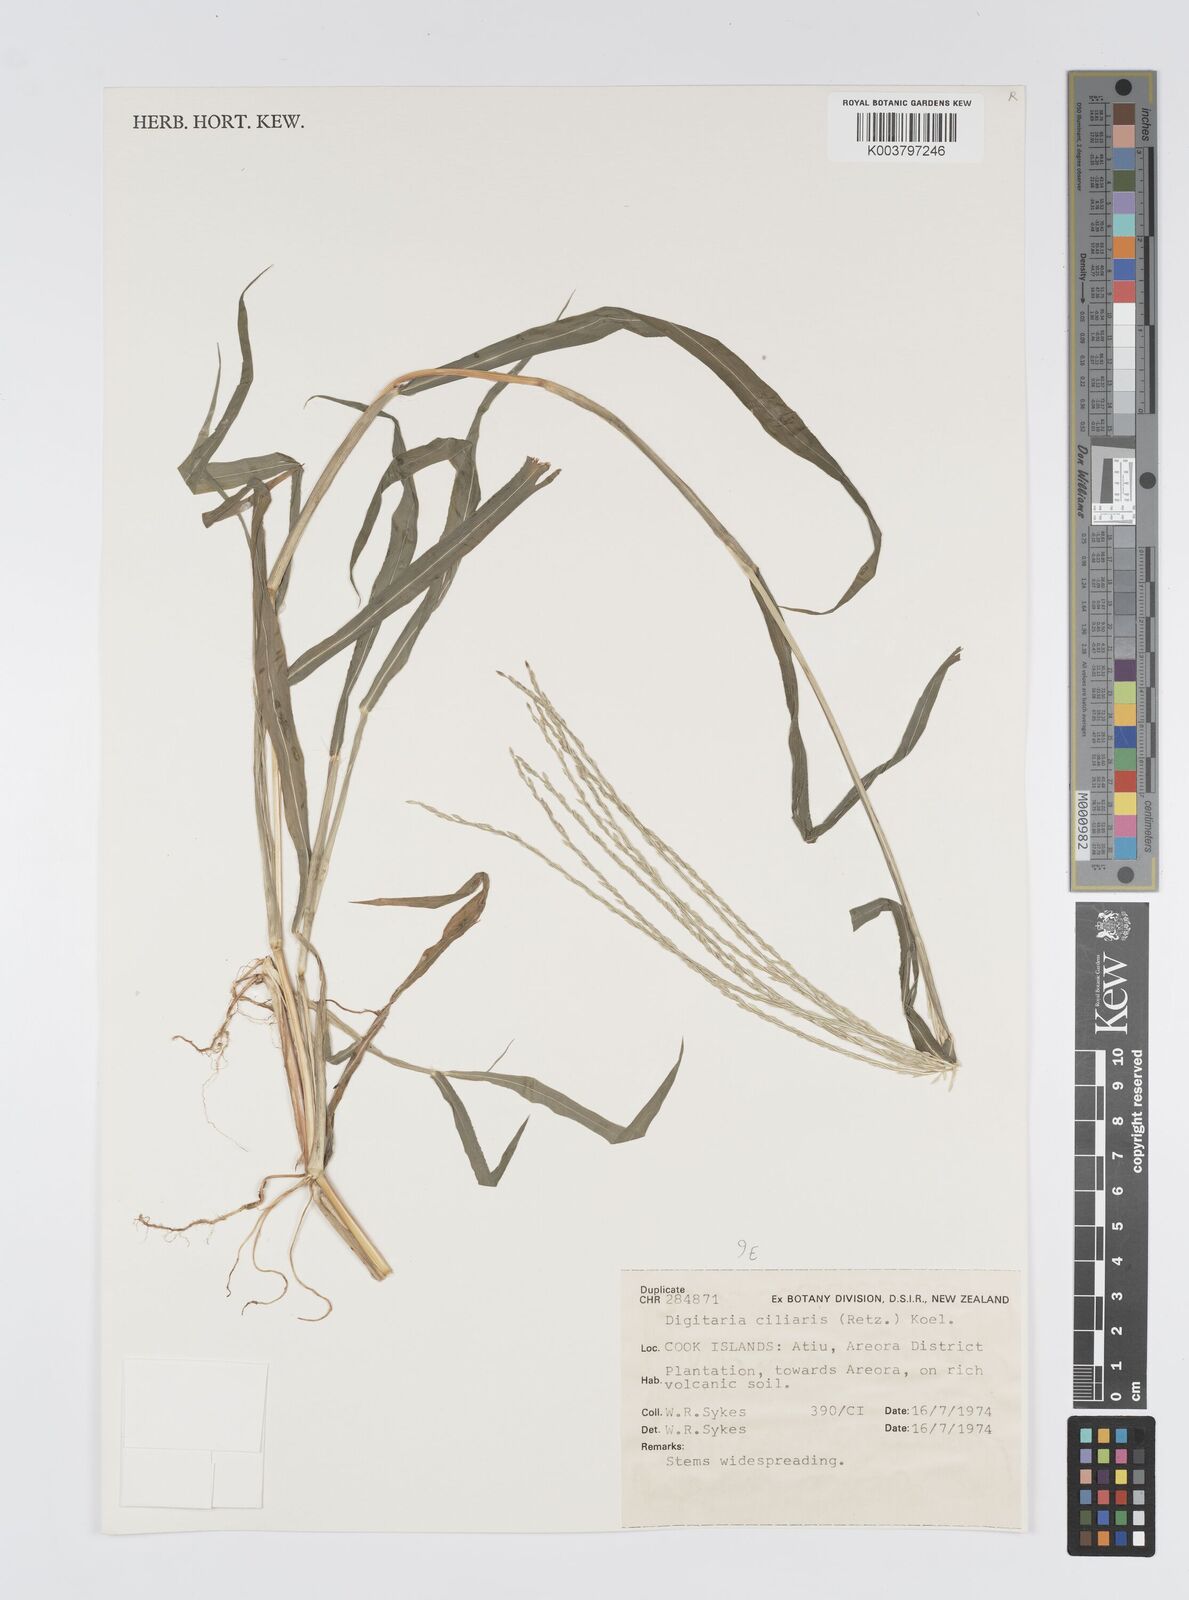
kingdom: Plantae
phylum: Tracheophyta
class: Liliopsida
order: Poales
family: Poaceae
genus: Digitaria
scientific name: Digitaria ciliaris
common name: Tropical finger-grass
